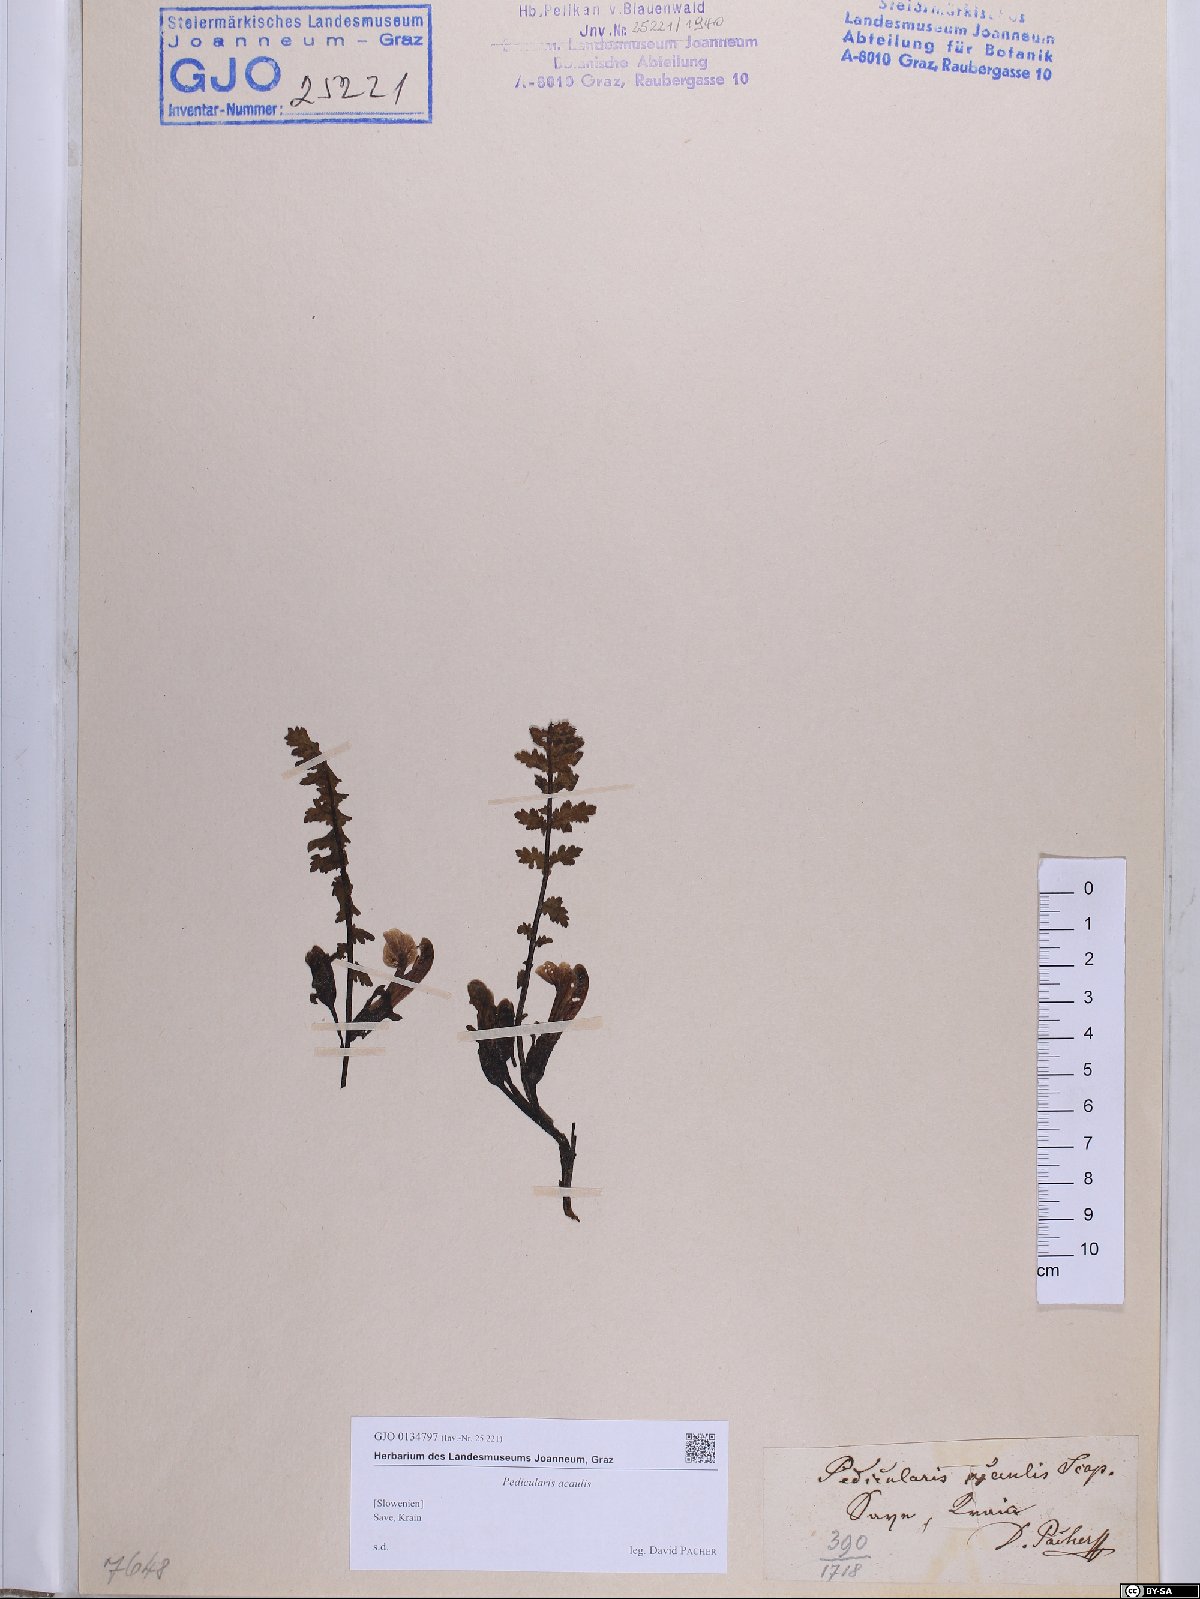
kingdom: Plantae
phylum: Tracheophyta
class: Magnoliopsida
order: Lamiales
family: Orobanchaceae
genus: Pedicularis
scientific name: Pedicularis acaulis
